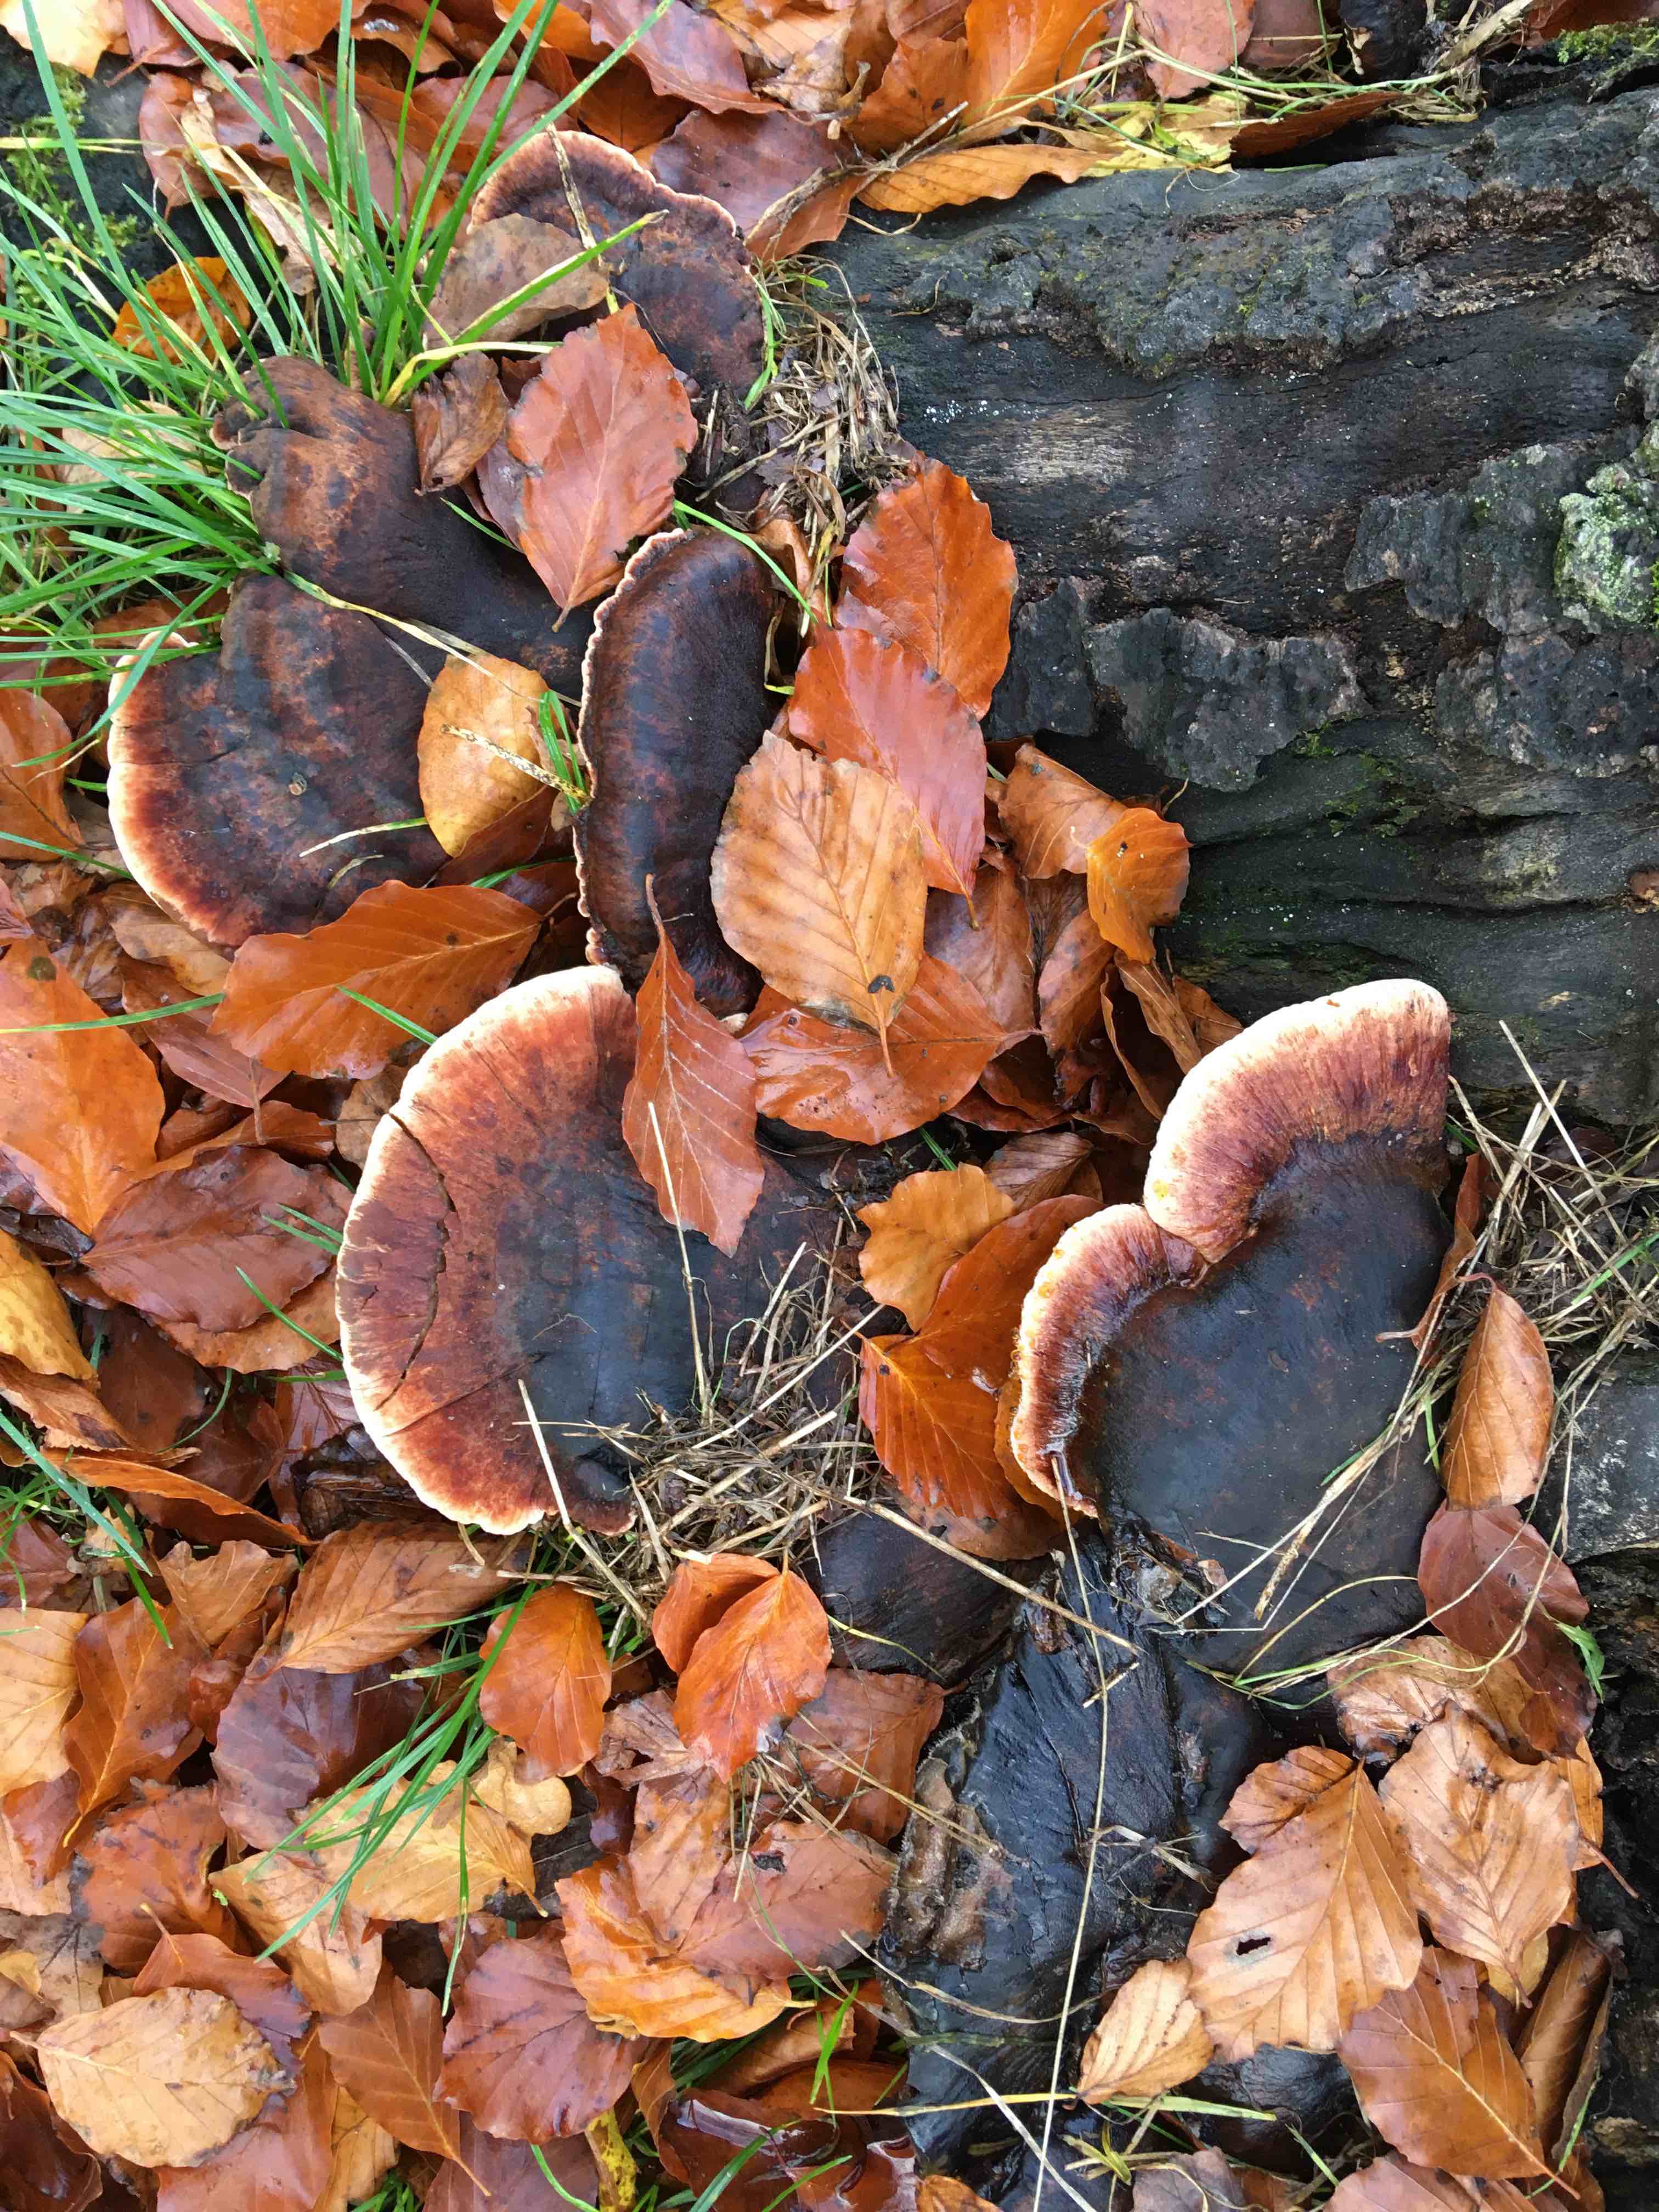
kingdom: Fungi
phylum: Basidiomycota
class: Agaricomycetes
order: Polyporales
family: Ischnodermataceae
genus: Ischnoderma
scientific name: Ischnoderma resinosum
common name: løv-tjæreporesvamp
